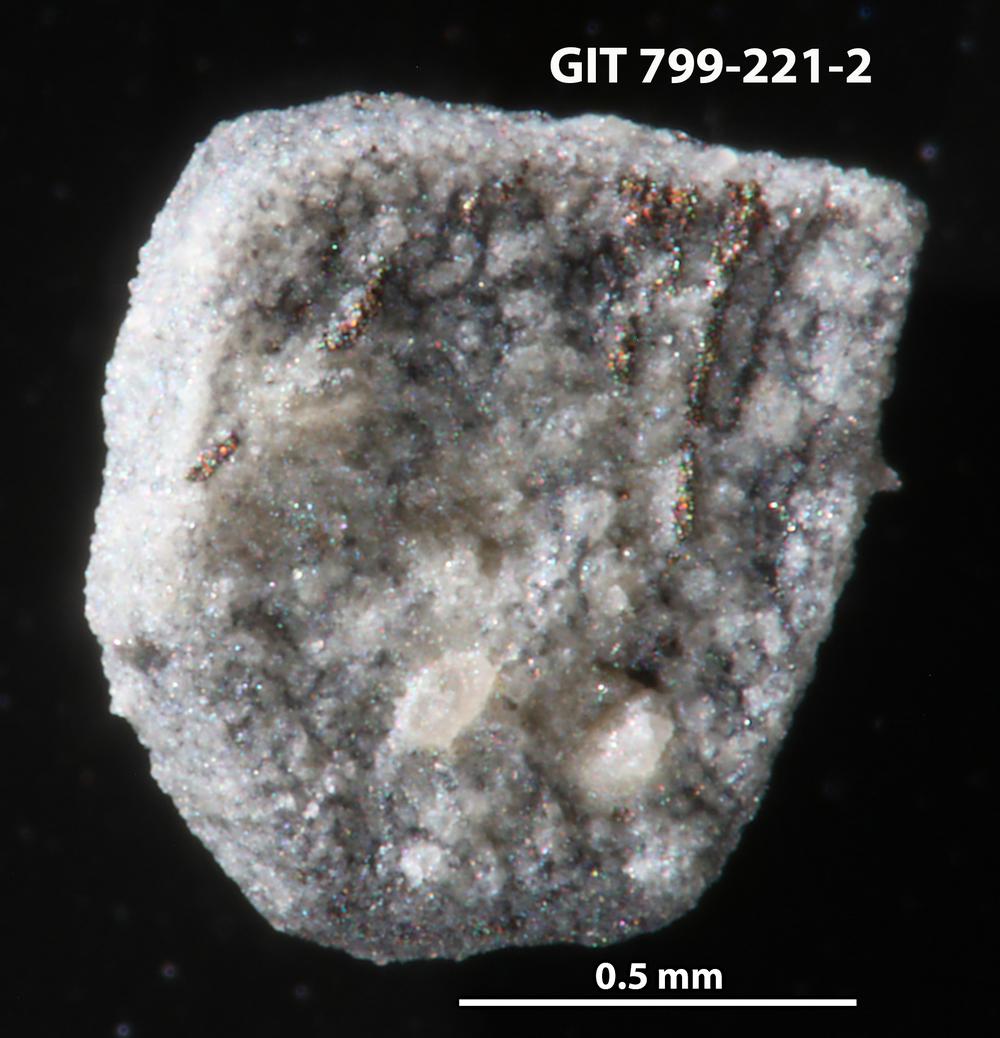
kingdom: Animalia
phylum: Echinodermata
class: Echinoidea
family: Lepidocentridae
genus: Aptilechinus
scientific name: Aptilechinus
